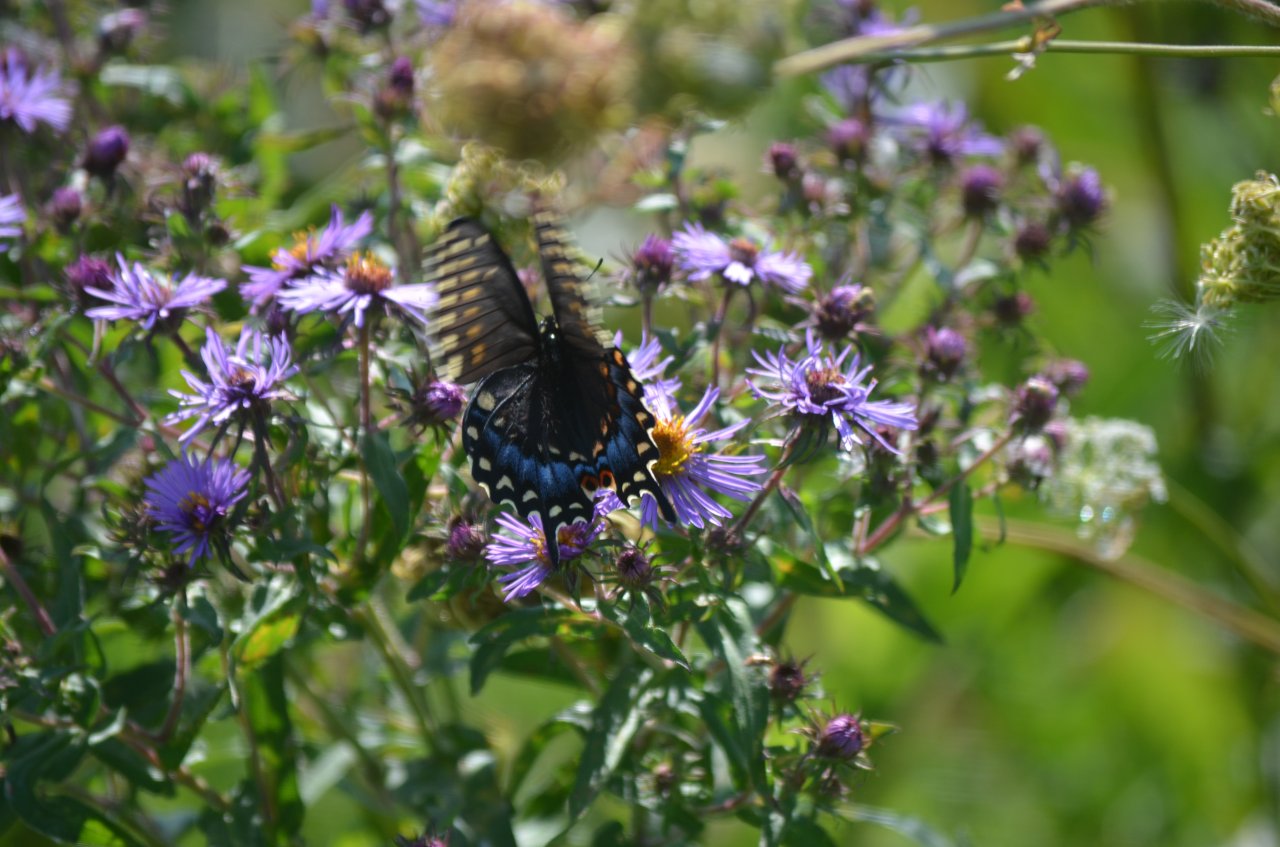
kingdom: Animalia
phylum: Arthropoda
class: Insecta
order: Lepidoptera
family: Papilionidae
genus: Papilio
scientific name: Papilio polyxenes
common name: Black Swallowtail
